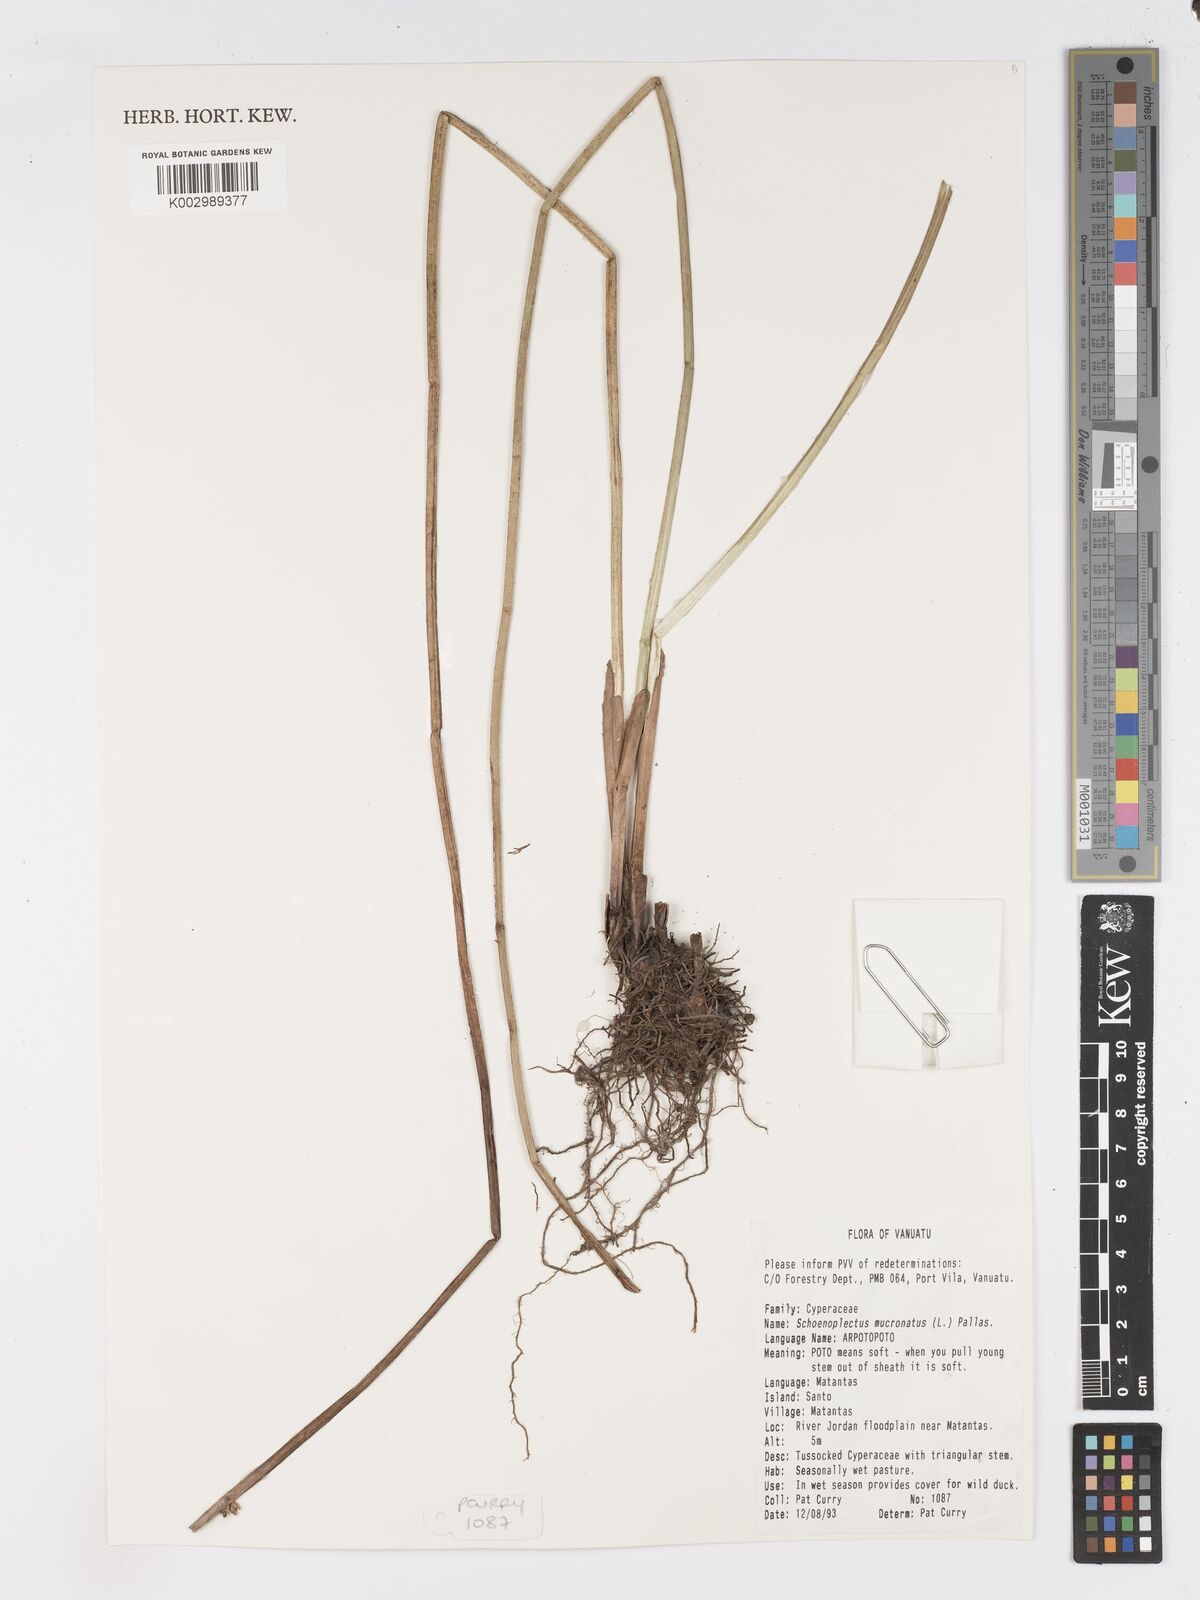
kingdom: Plantae
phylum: Tracheophyta
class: Liliopsida
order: Poales
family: Cyperaceae
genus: Schoenoplectiella
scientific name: Schoenoplectiella mucronata
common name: Bog bulrush
